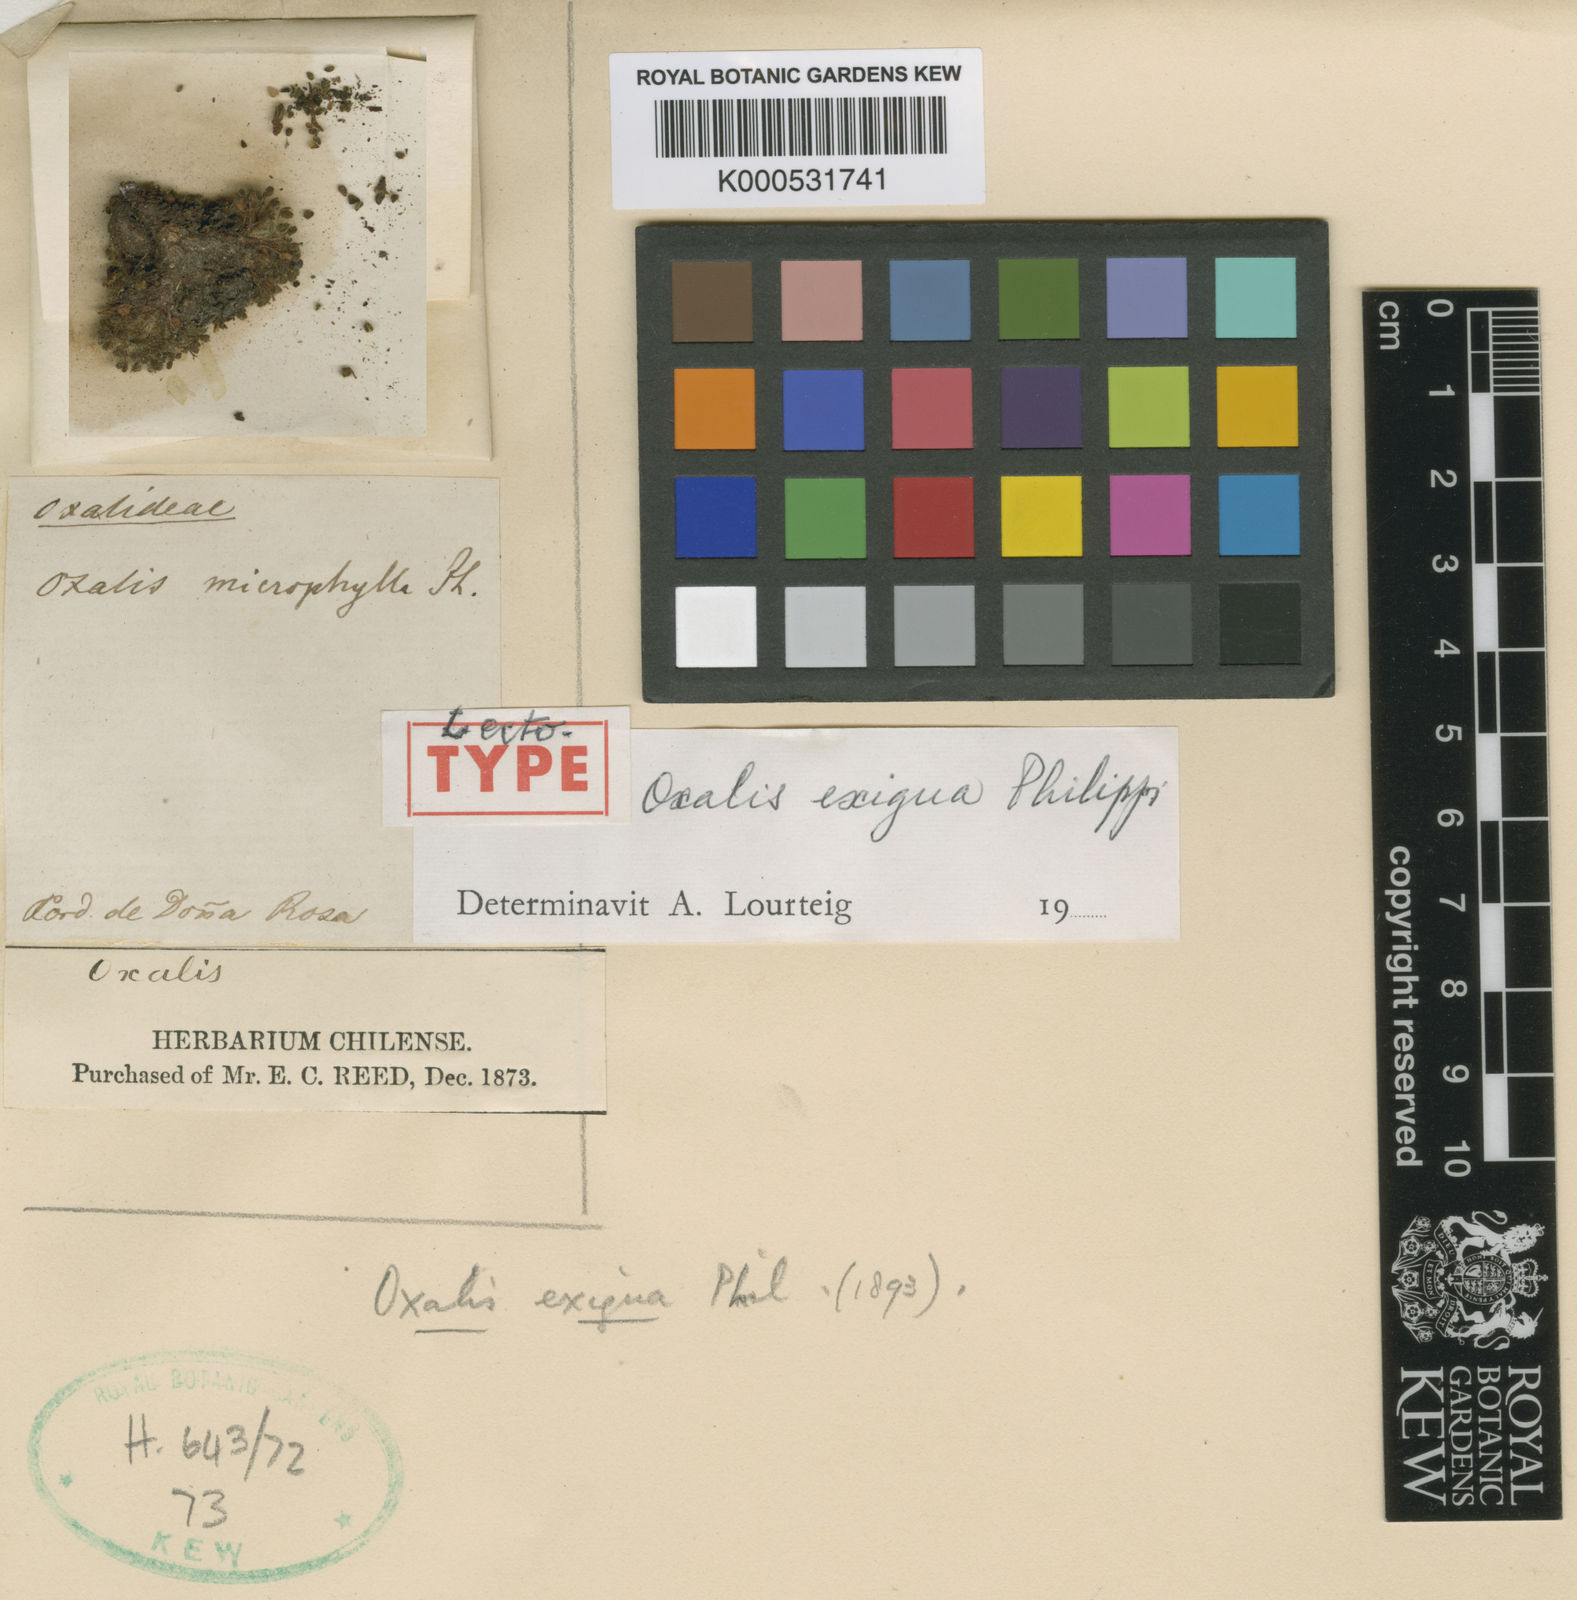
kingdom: Plantae
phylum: Tracheophyta
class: Magnoliopsida
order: Oxalidales
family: Oxalidaceae
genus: Oxalis
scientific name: Oxalis hypsophila
